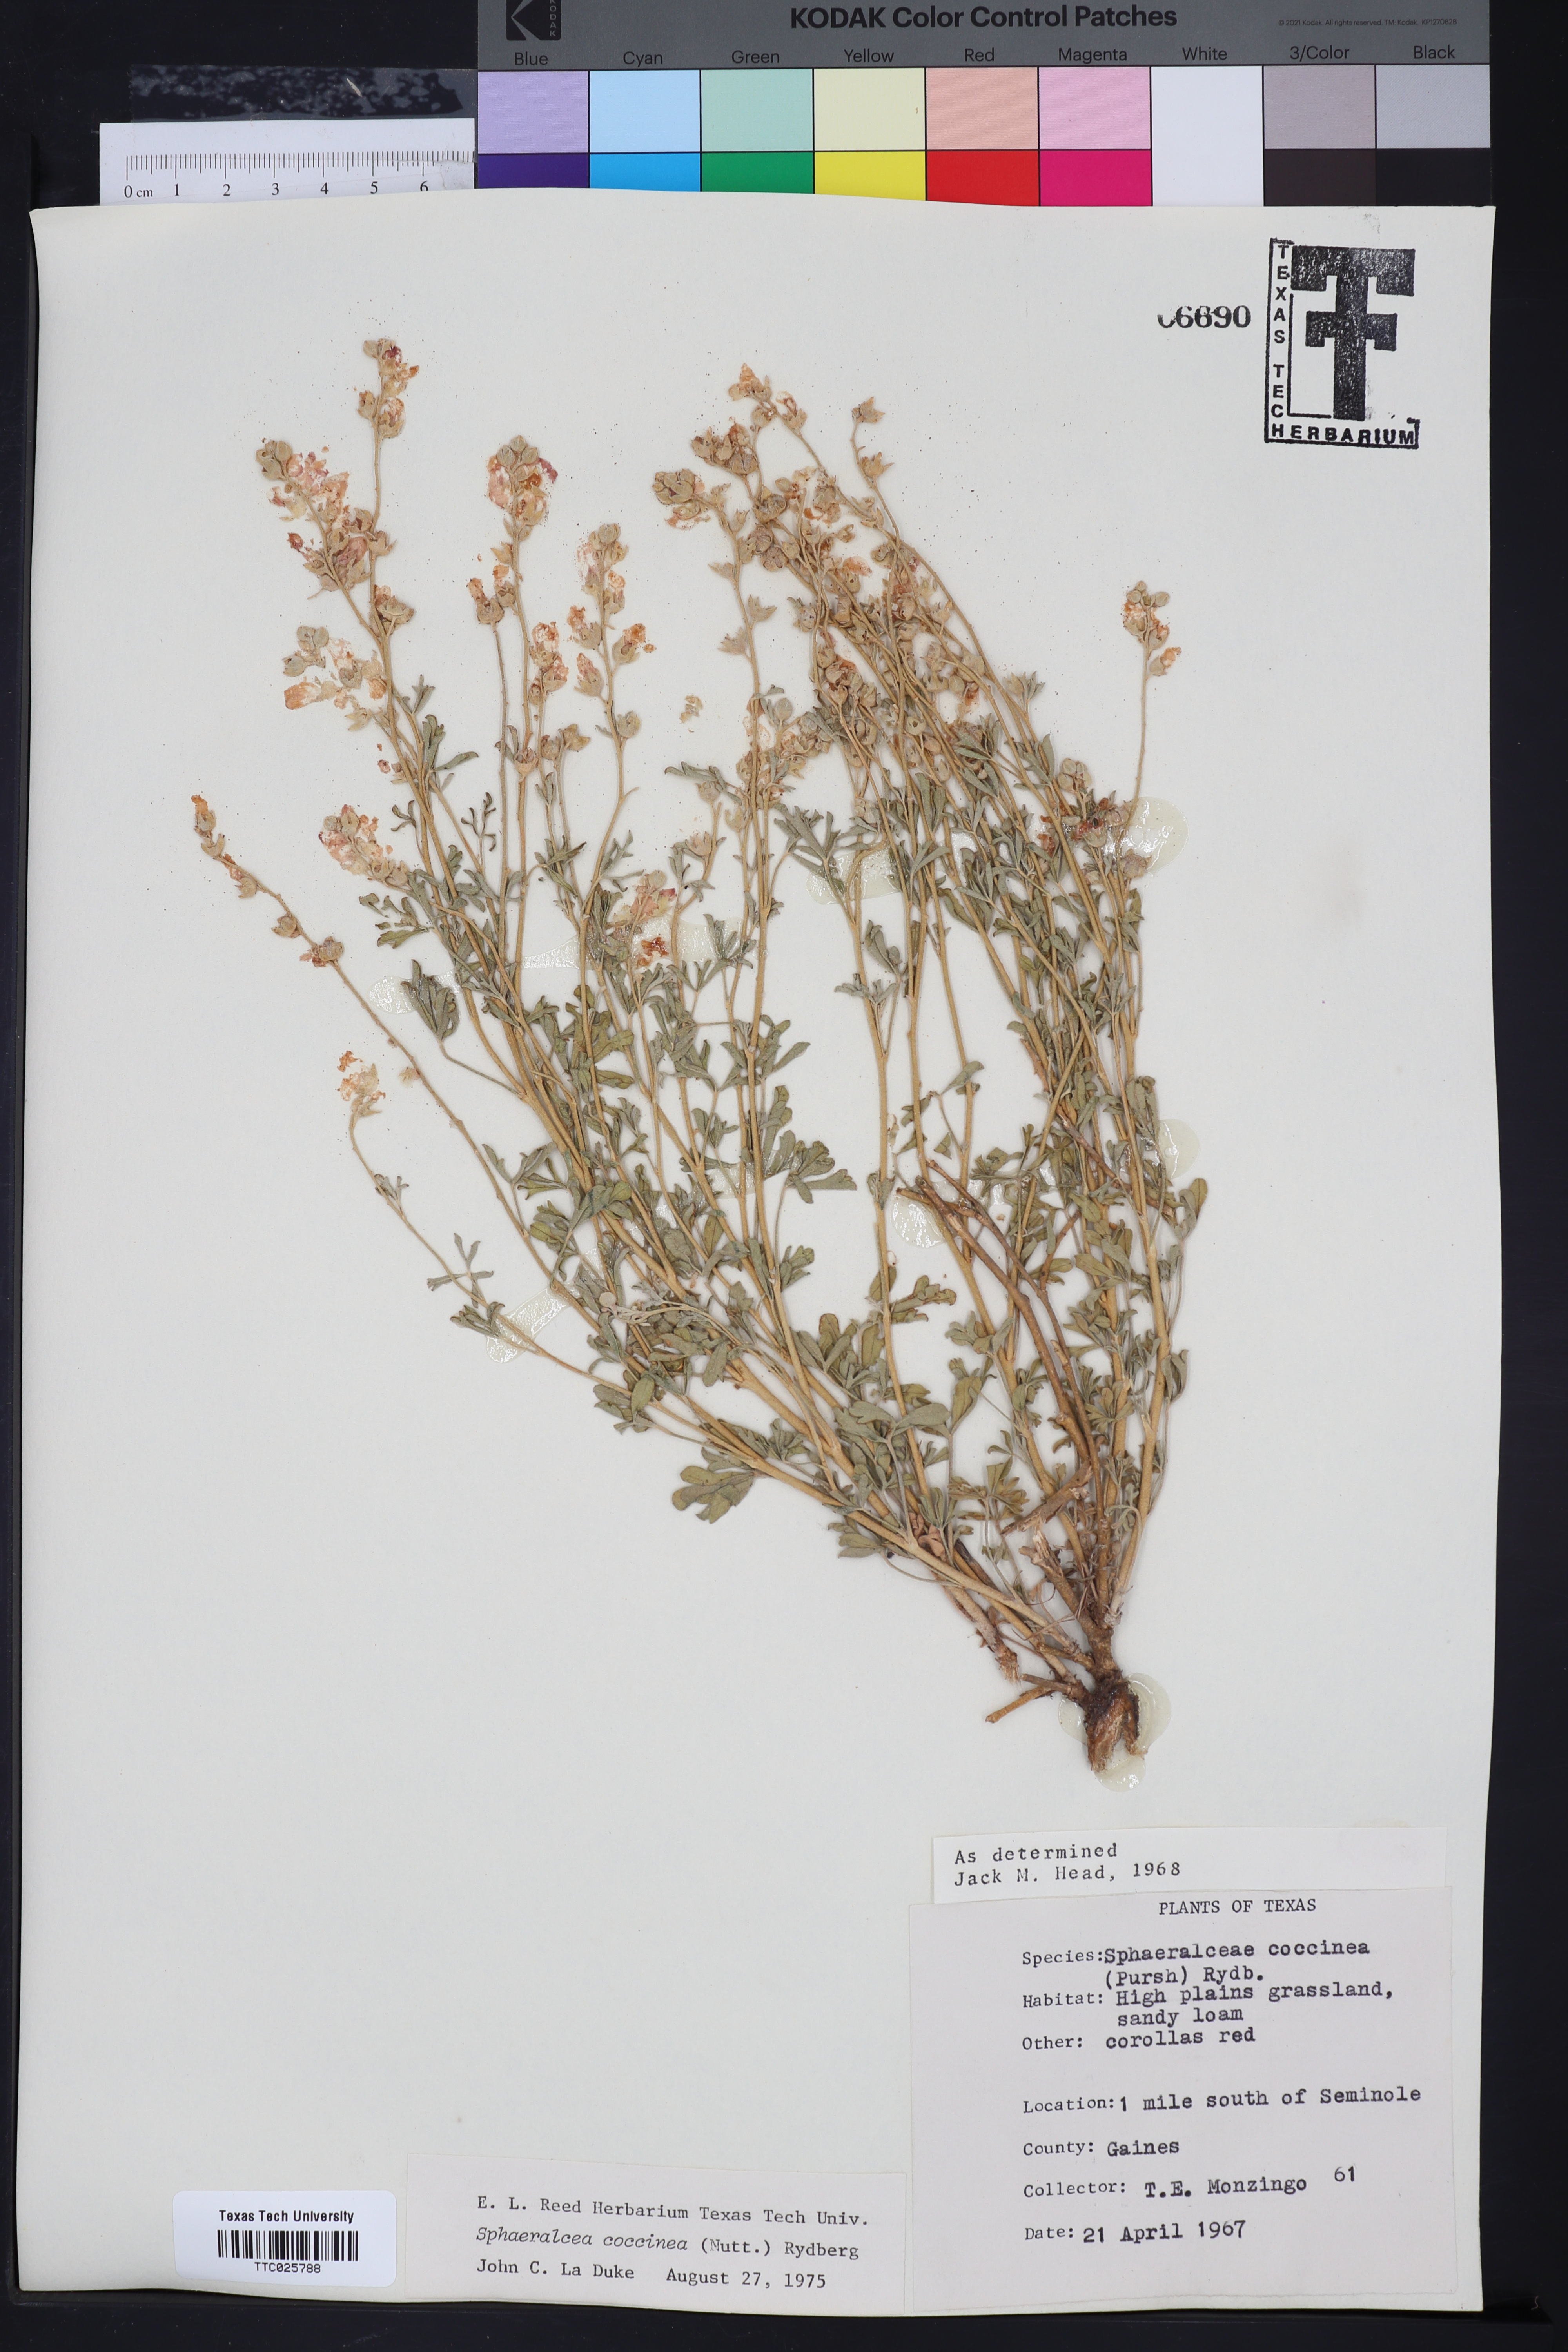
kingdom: Plantae
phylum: Tracheophyta
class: Magnoliopsida
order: Malvales
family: Malvaceae
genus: Sphaeralcea
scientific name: Sphaeralcea coccinea
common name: Moss-rose
